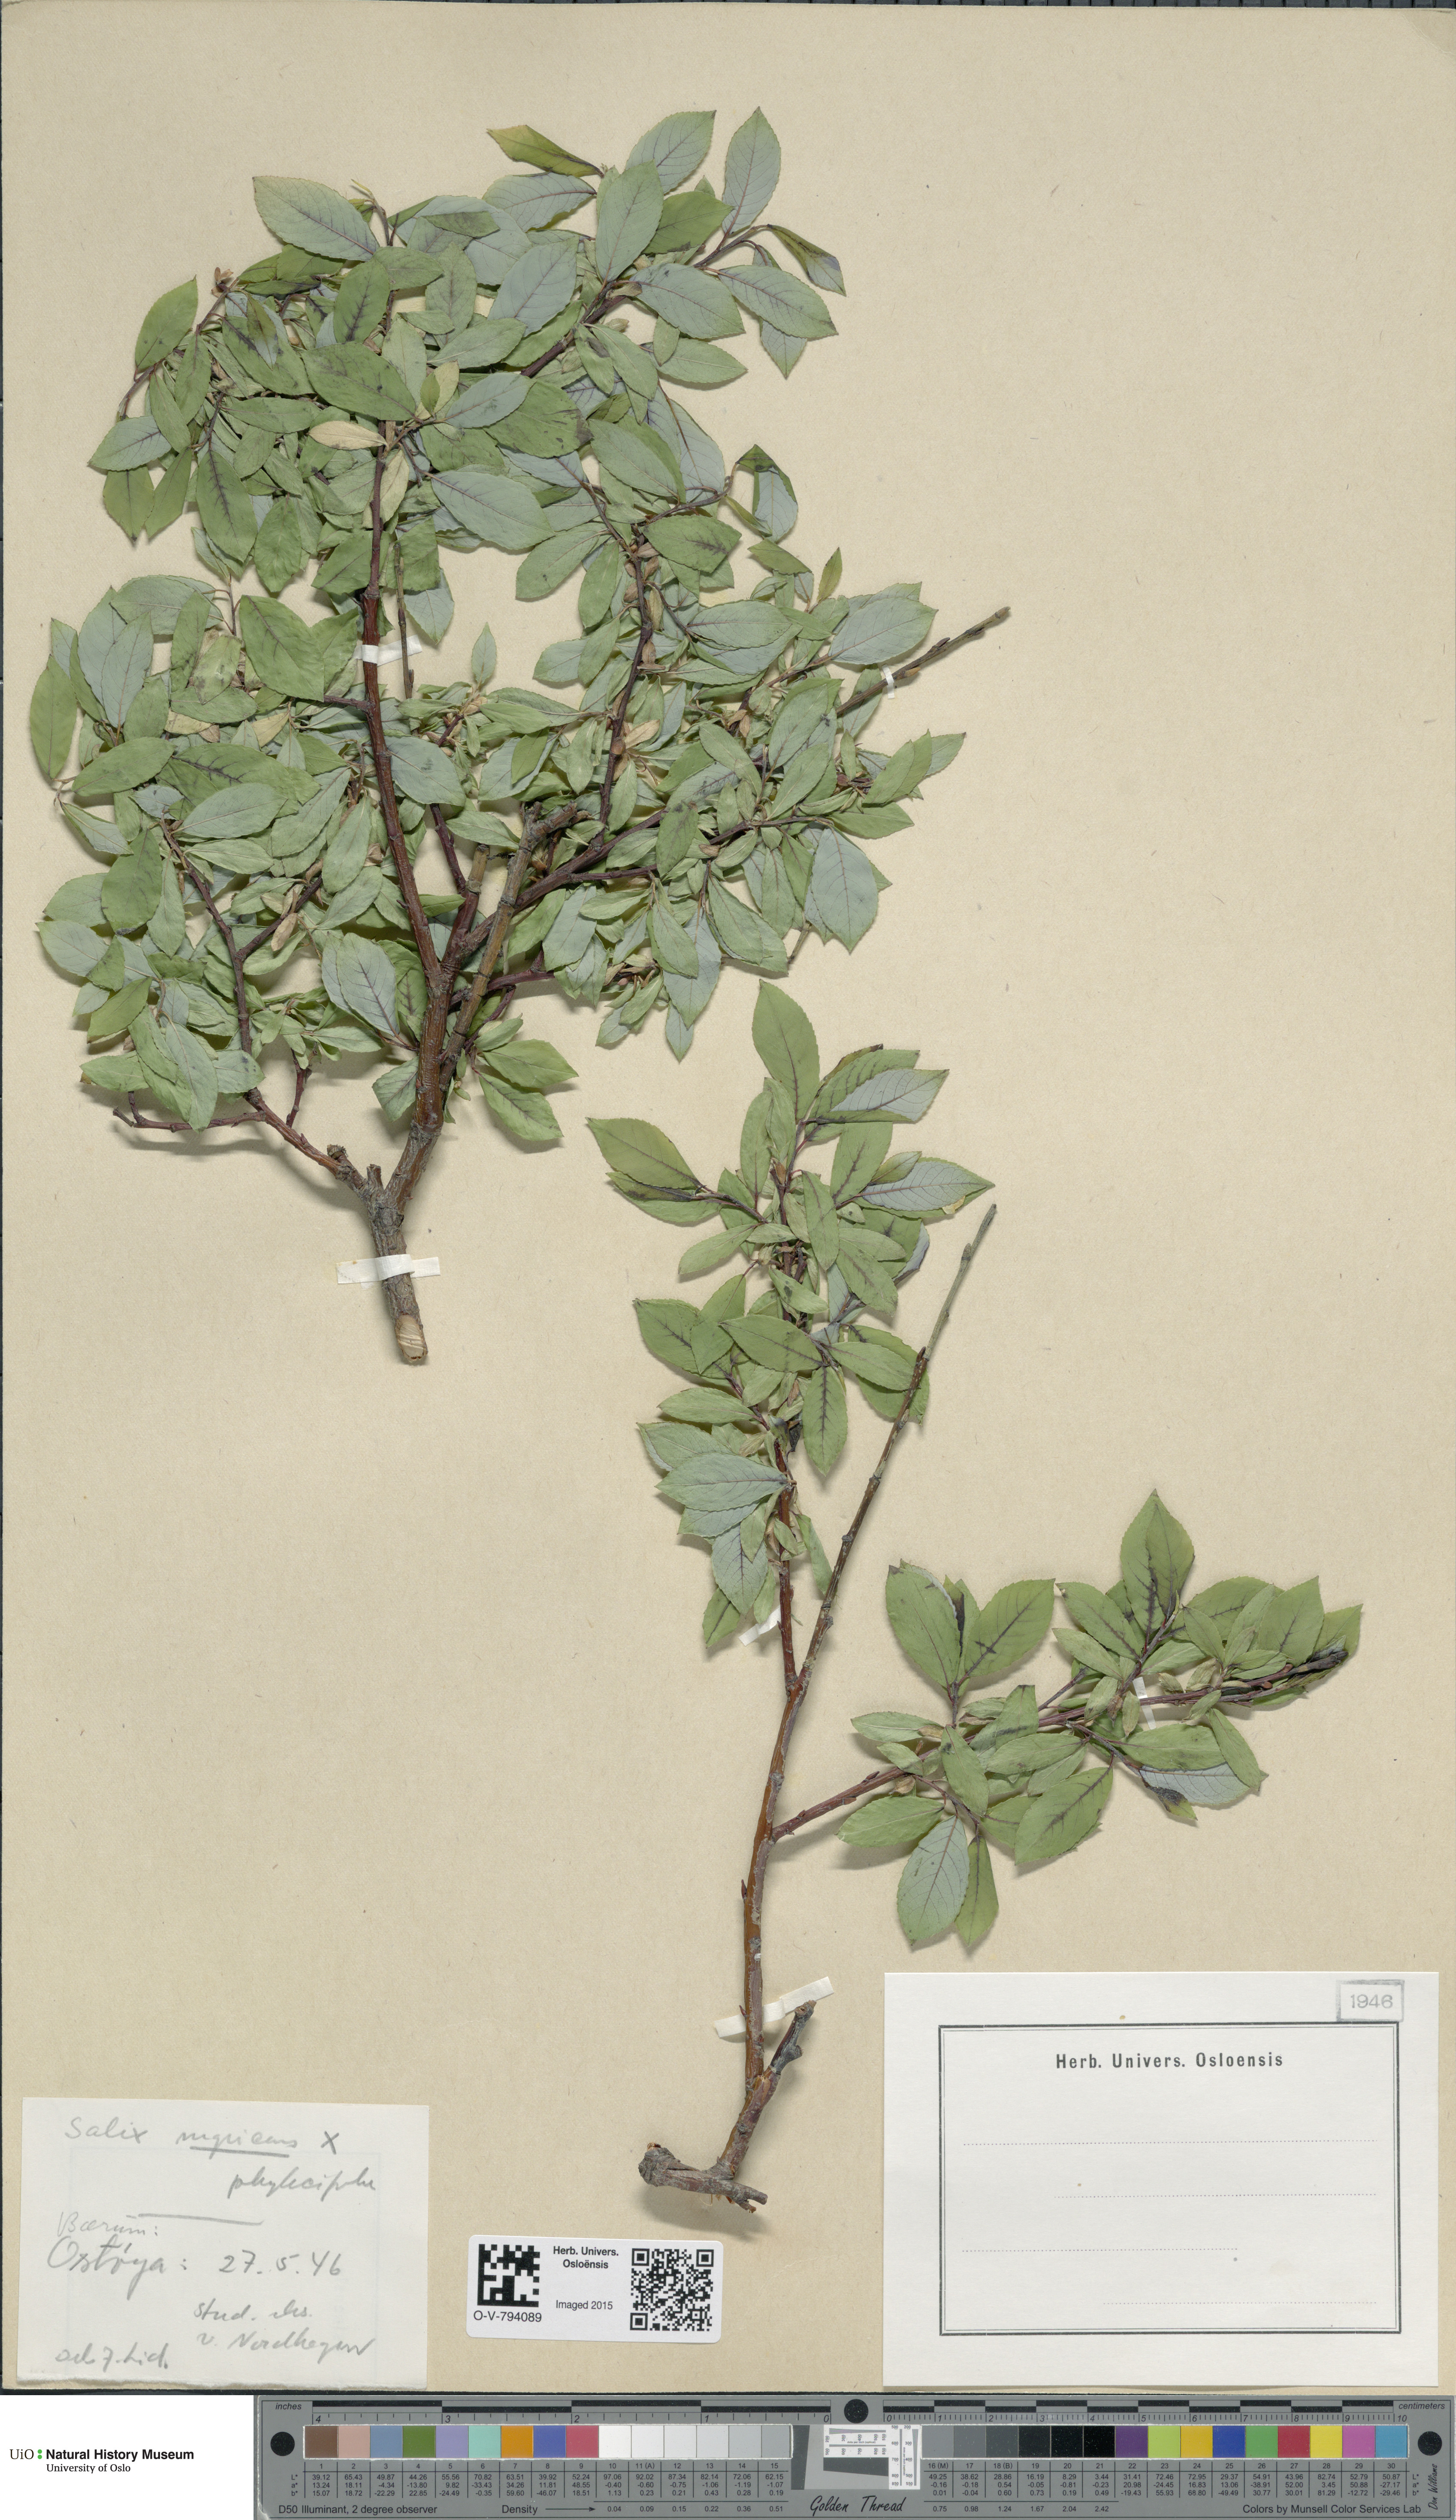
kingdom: Plantae
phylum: Tracheophyta
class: Magnoliopsida
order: Malpighiales
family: Salicaceae
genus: Salix
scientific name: Salix
